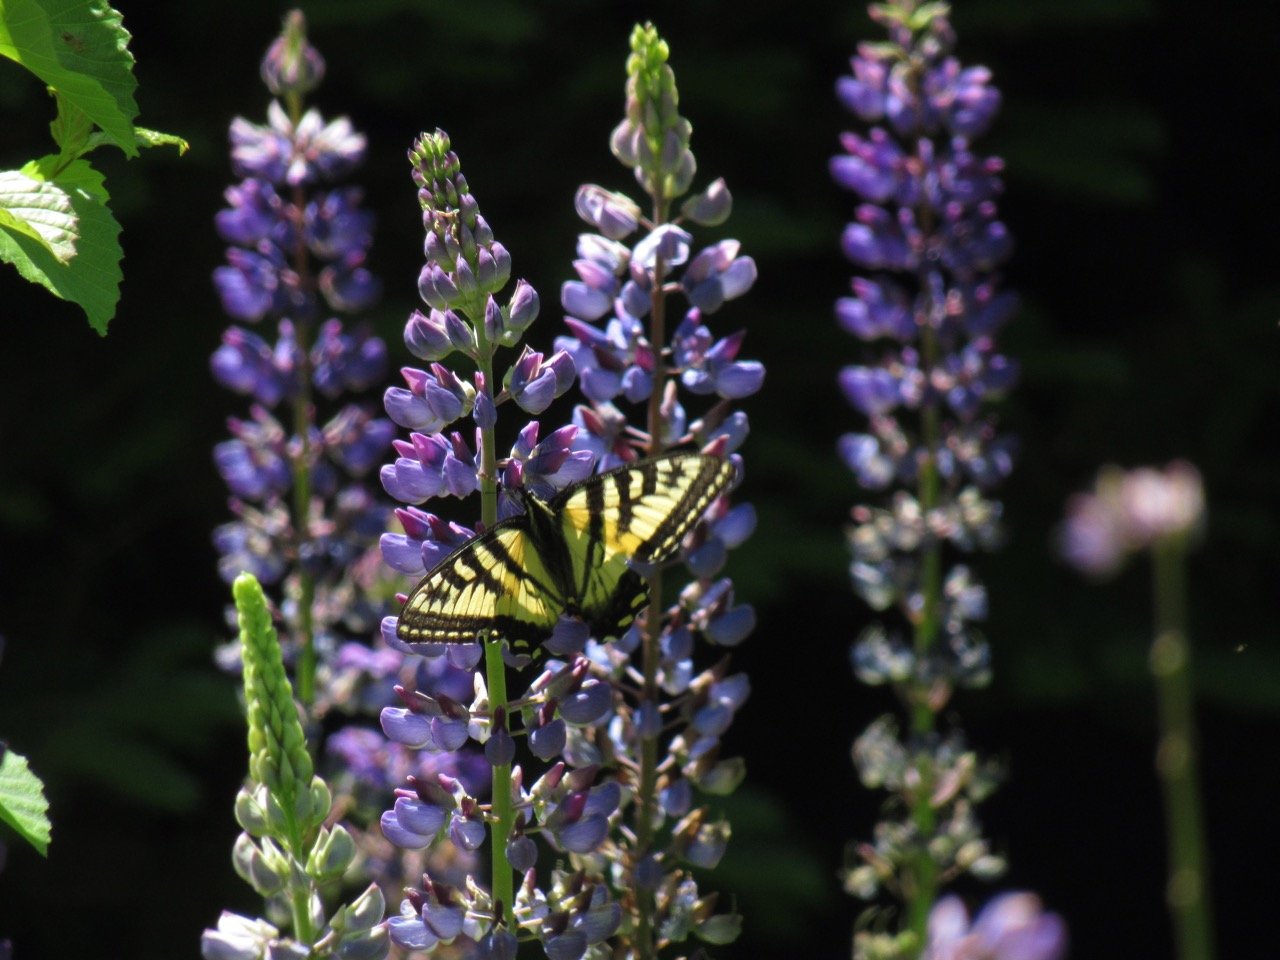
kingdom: Animalia
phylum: Arthropoda
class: Insecta
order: Lepidoptera
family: Papilionidae
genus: Pterourus
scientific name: Pterourus canadensis
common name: Canadian Tiger Swallowtail
